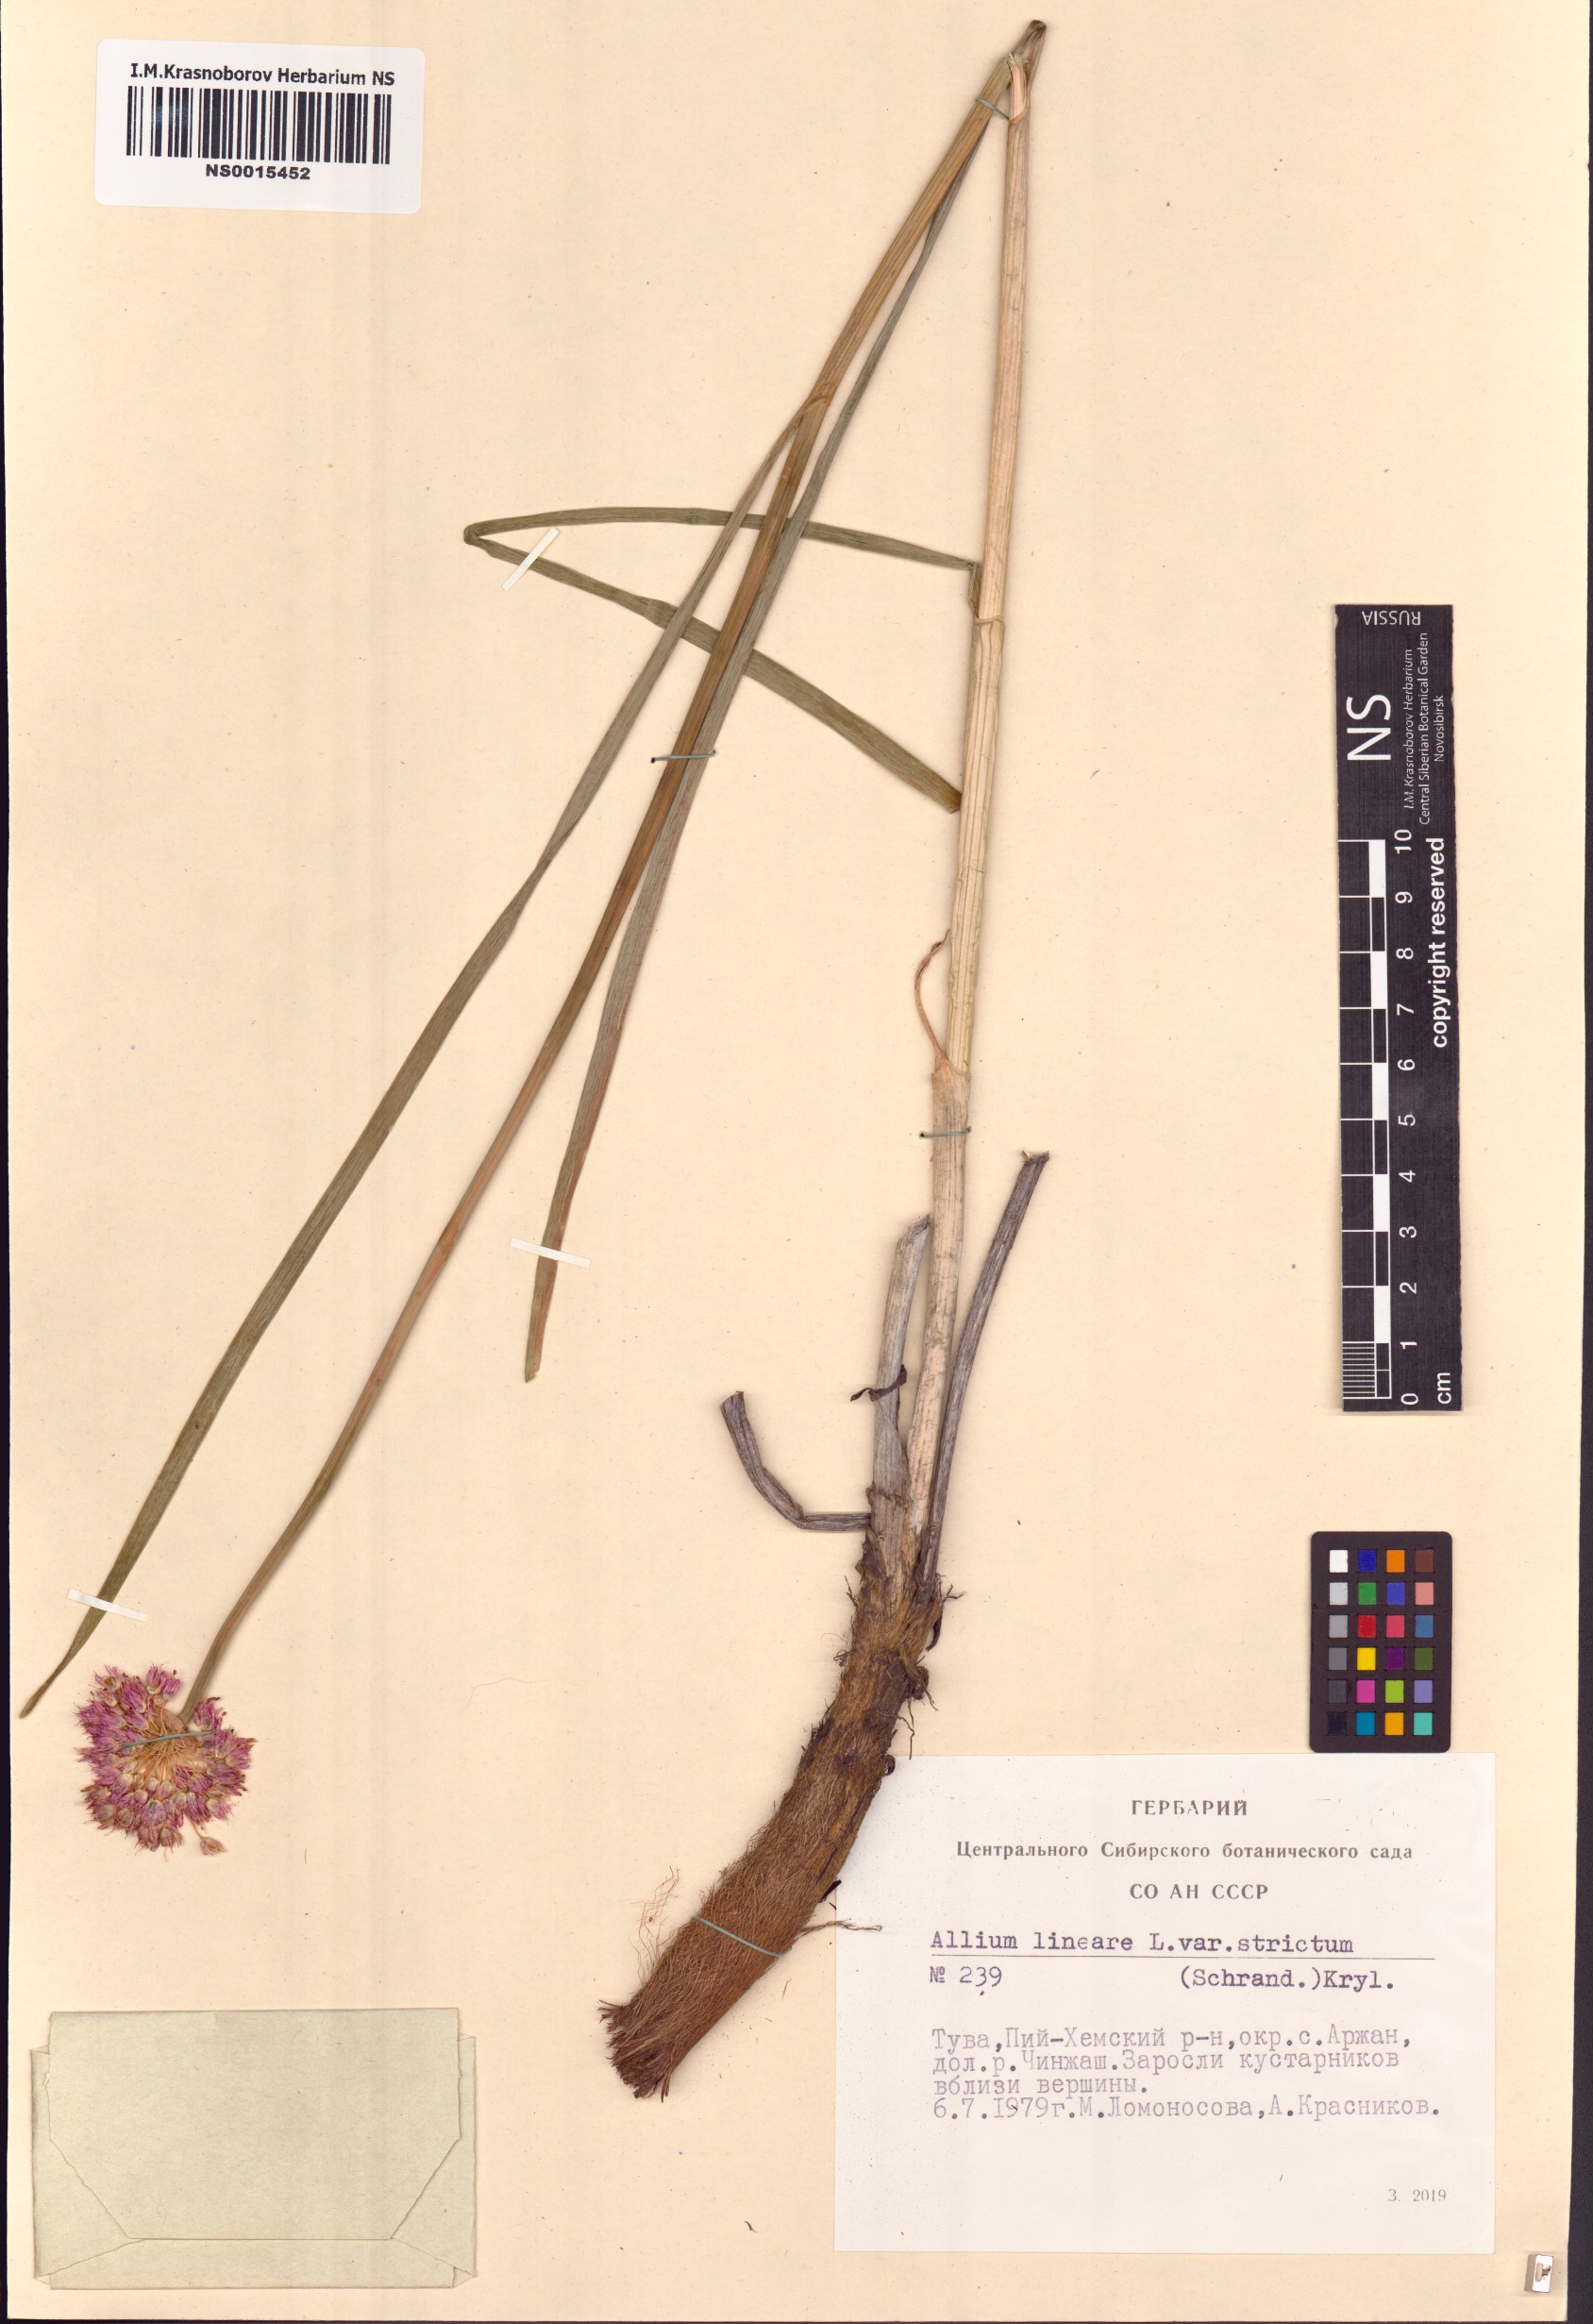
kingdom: Plantae
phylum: Tracheophyta
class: Liliopsida
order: Asparagales
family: Amaryllidaceae
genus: Allium
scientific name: Allium strictum
